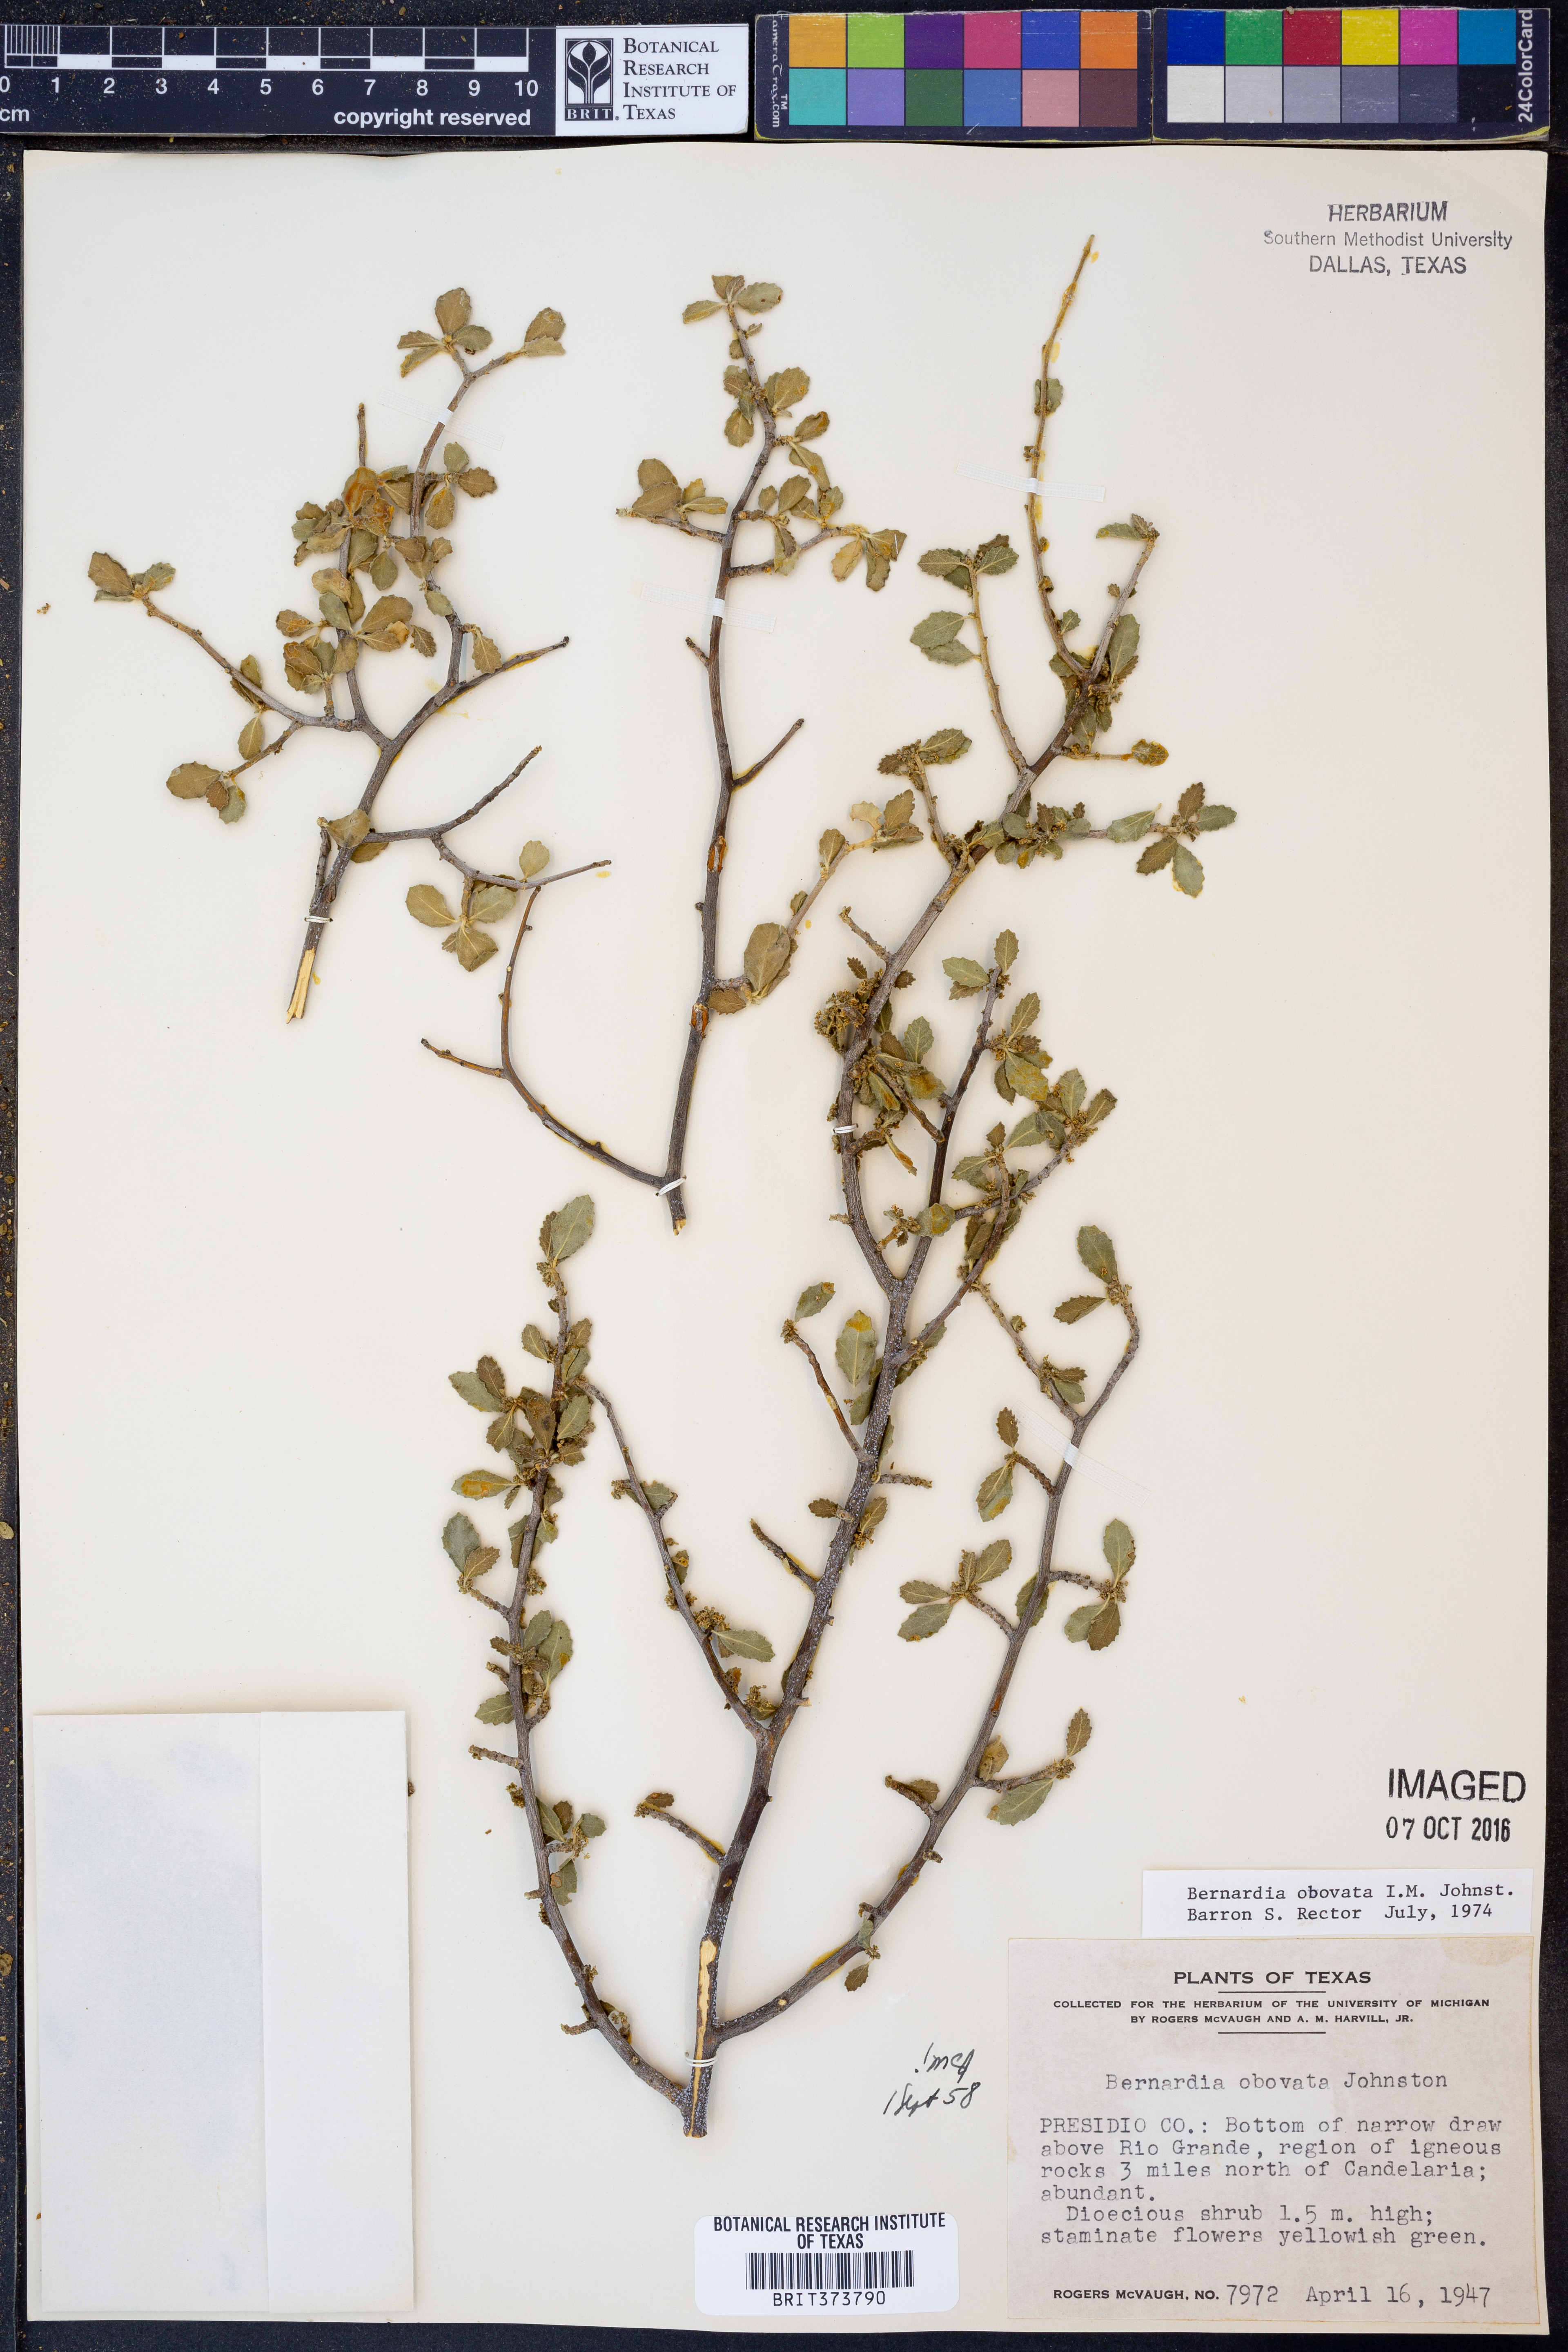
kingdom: Plantae
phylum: Tracheophyta
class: Magnoliopsida
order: Malpighiales
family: Euphorbiaceae
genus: Bernardia
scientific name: Bernardia obovata
